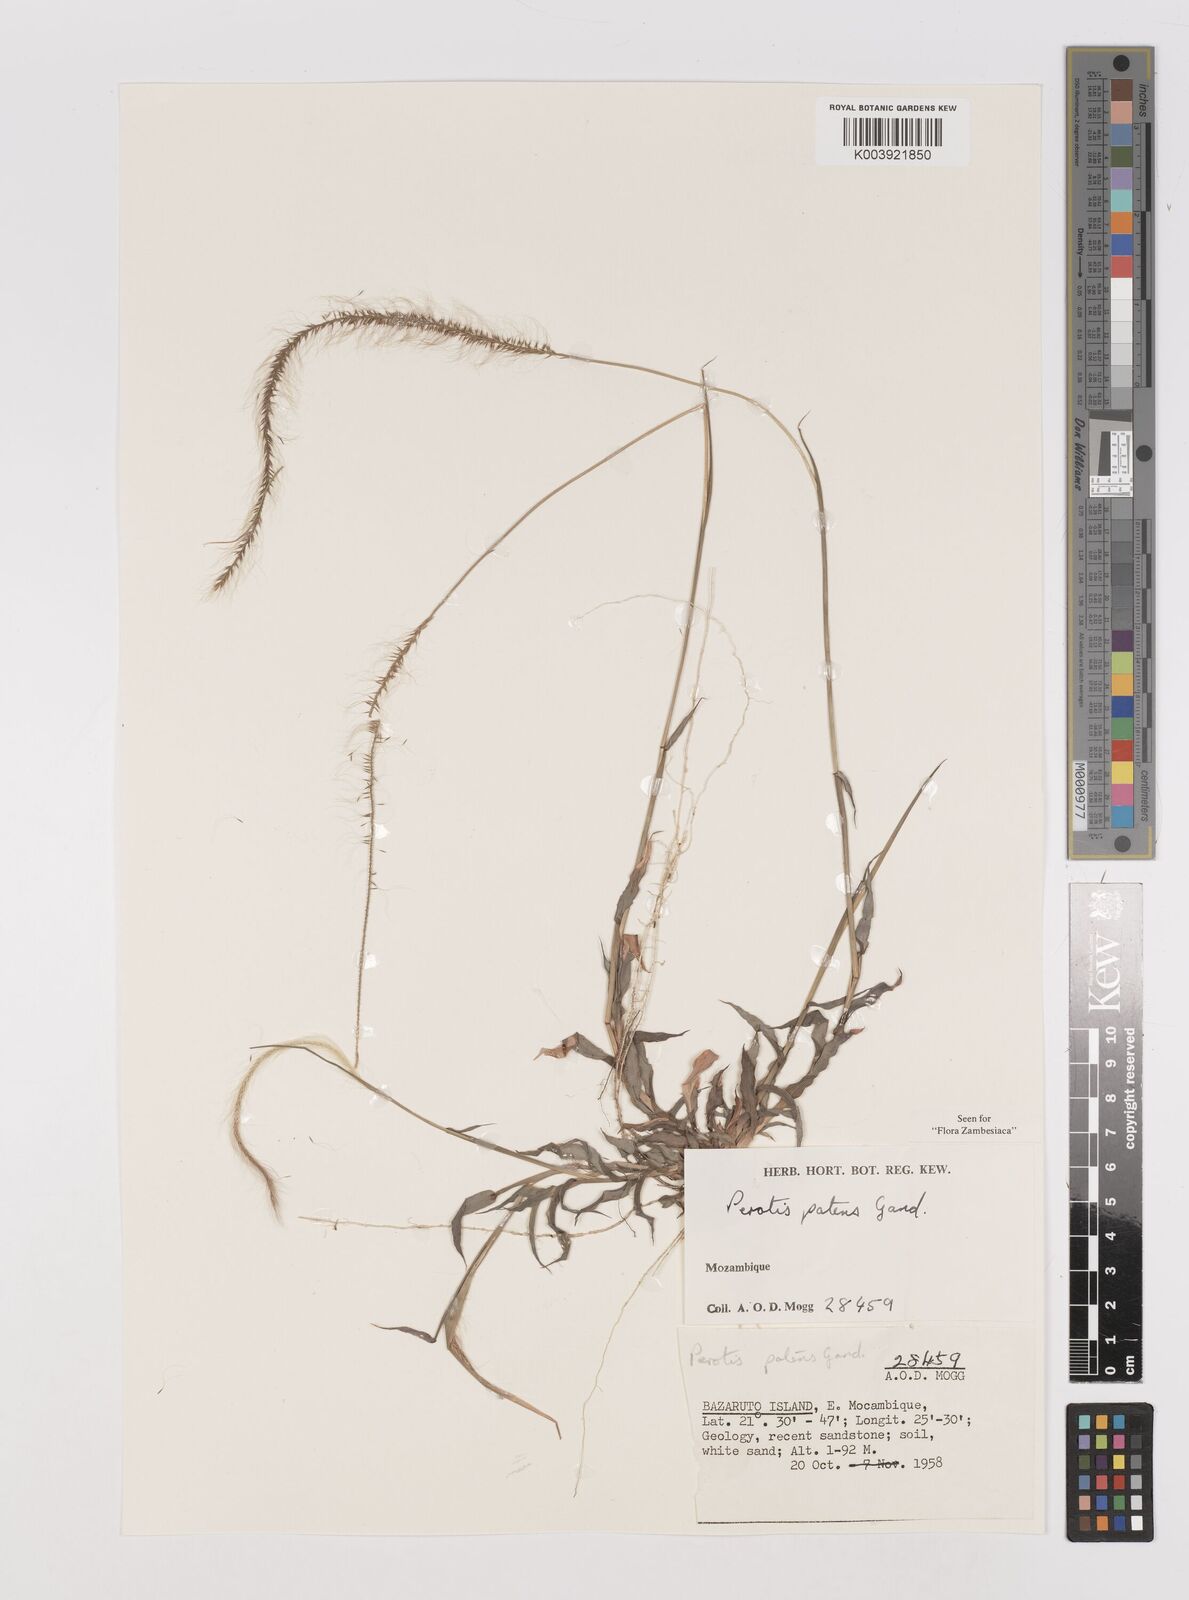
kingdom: Plantae
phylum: Tracheophyta
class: Liliopsida
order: Poales
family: Poaceae
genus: Perotis
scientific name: Perotis patens
